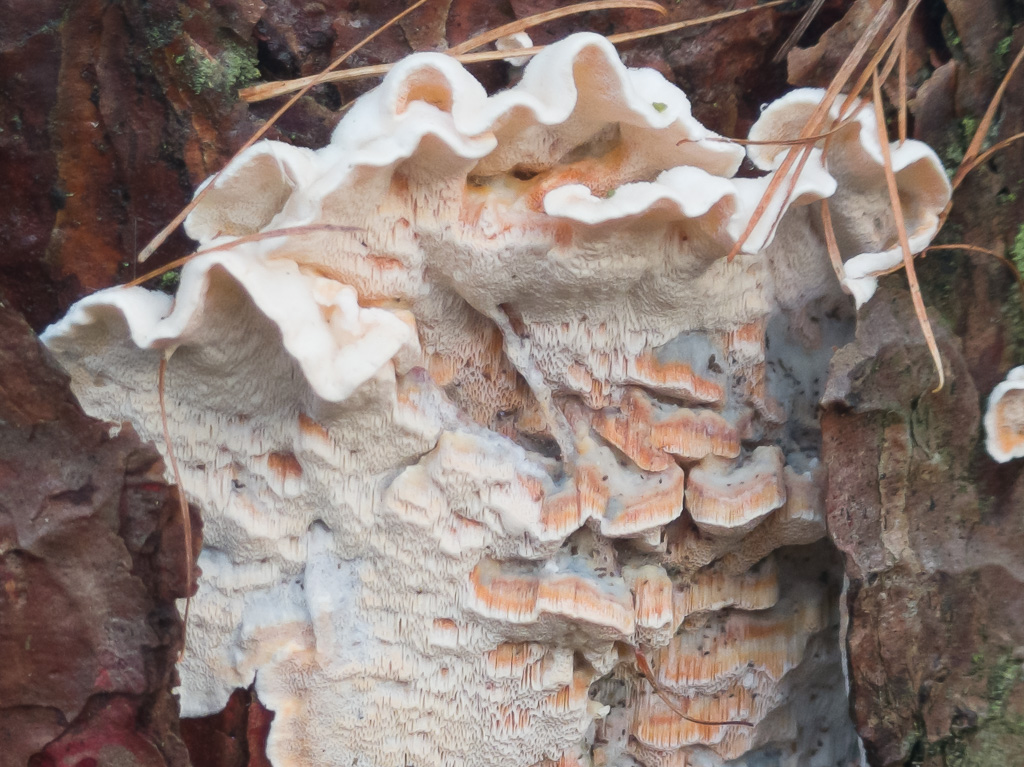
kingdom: Fungi
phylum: Basidiomycota
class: Agaricomycetes
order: Polyporales
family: Incrustoporiaceae
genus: Skeletocutis
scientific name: Skeletocutis amorpha
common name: orange krystalporesvamp
